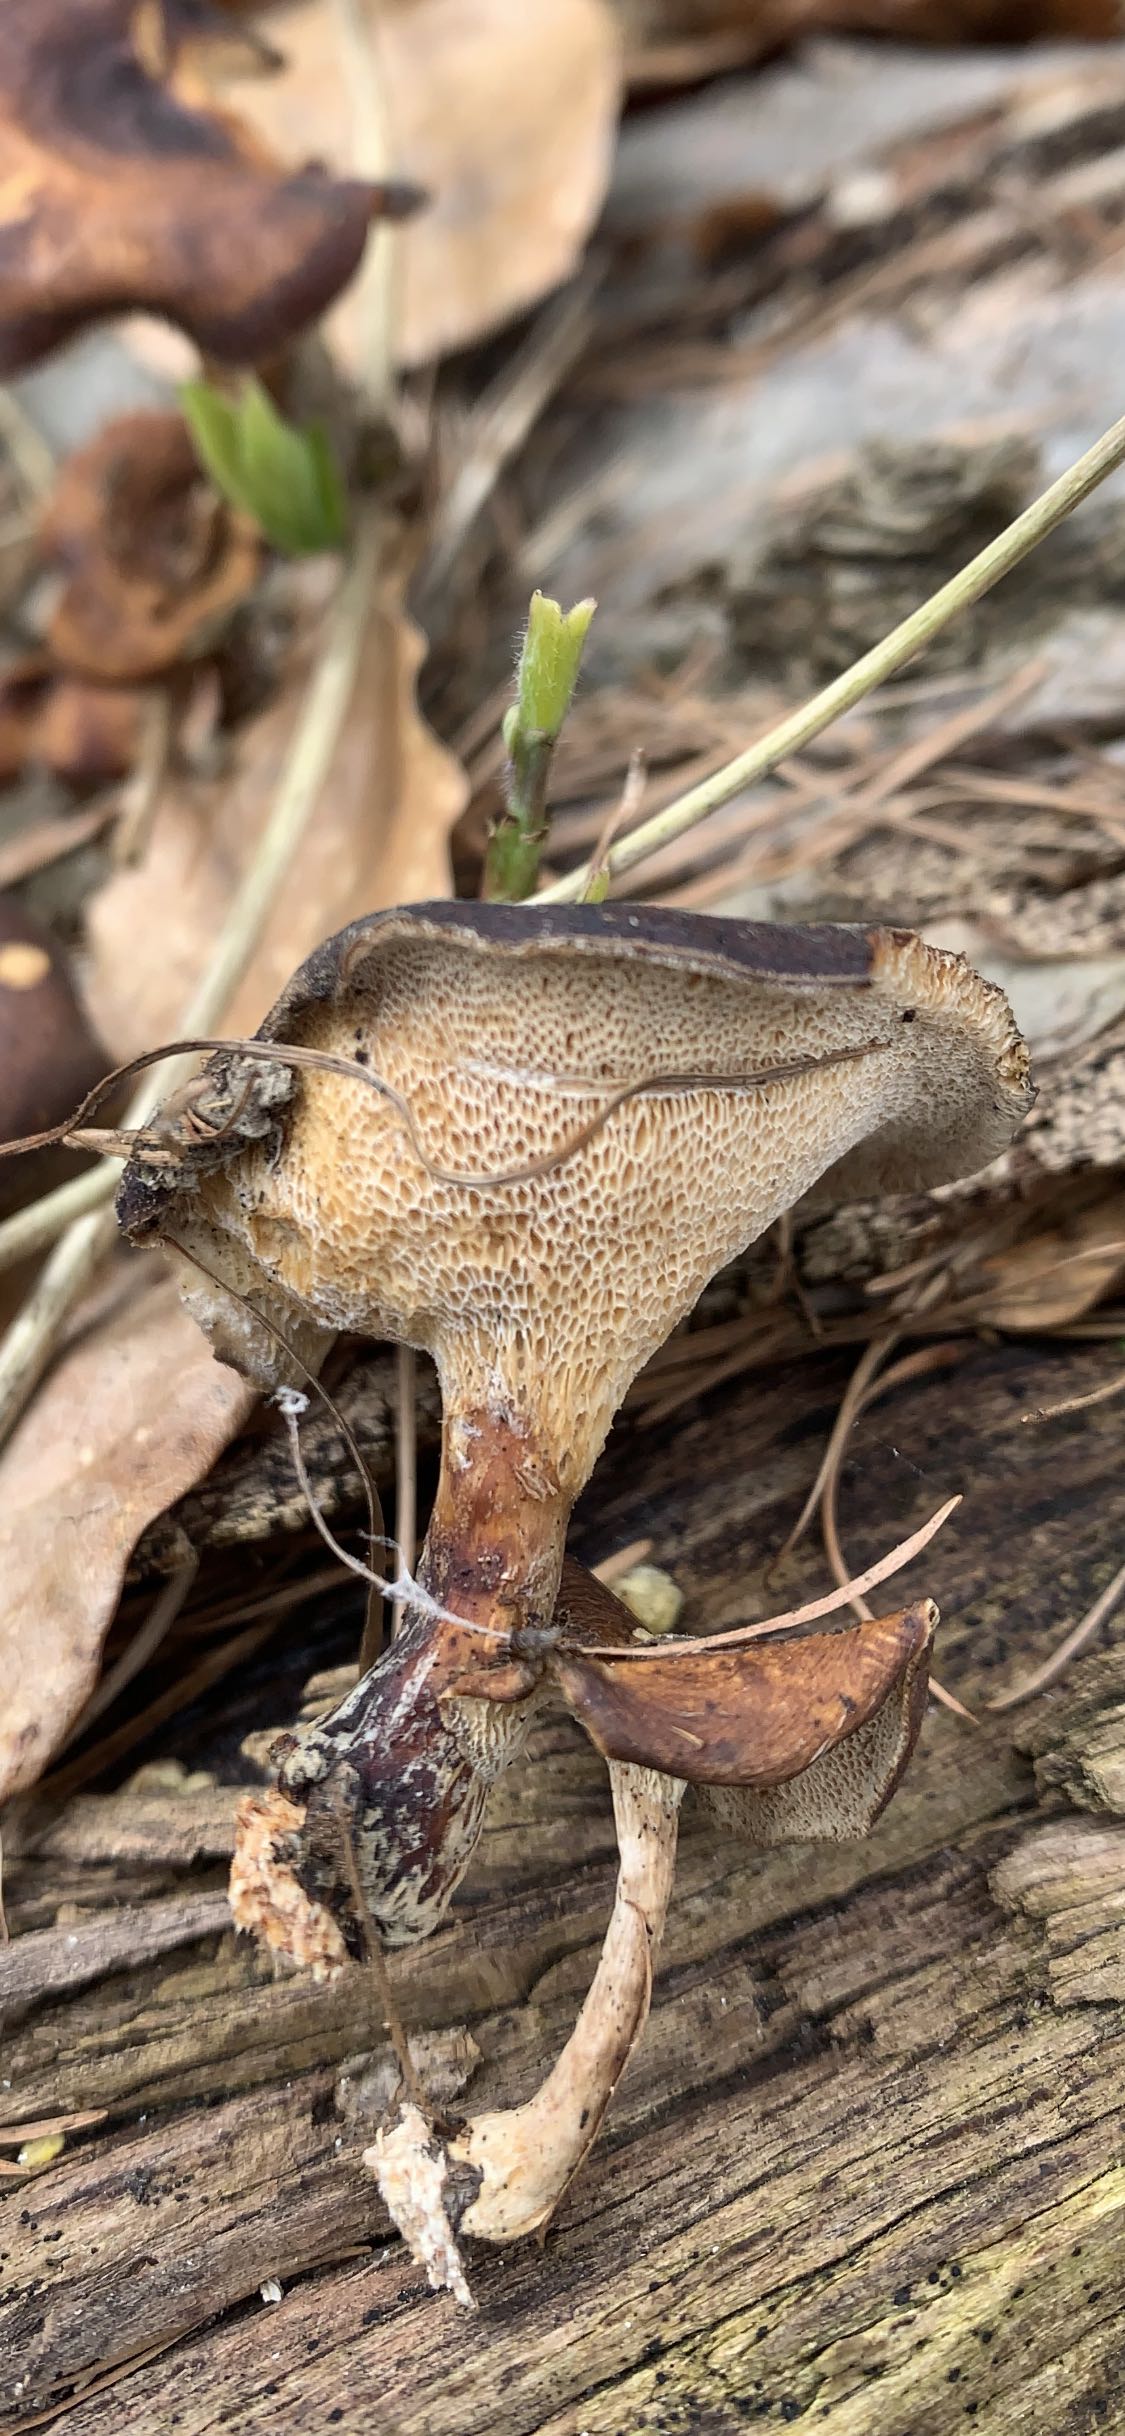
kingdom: Fungi
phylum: Basidiomycota
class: Agaricomycetes
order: Polyporales
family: Polyporaceae
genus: Lentinus
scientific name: Lentinus brumalis
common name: vinter-stilkporesvamp
